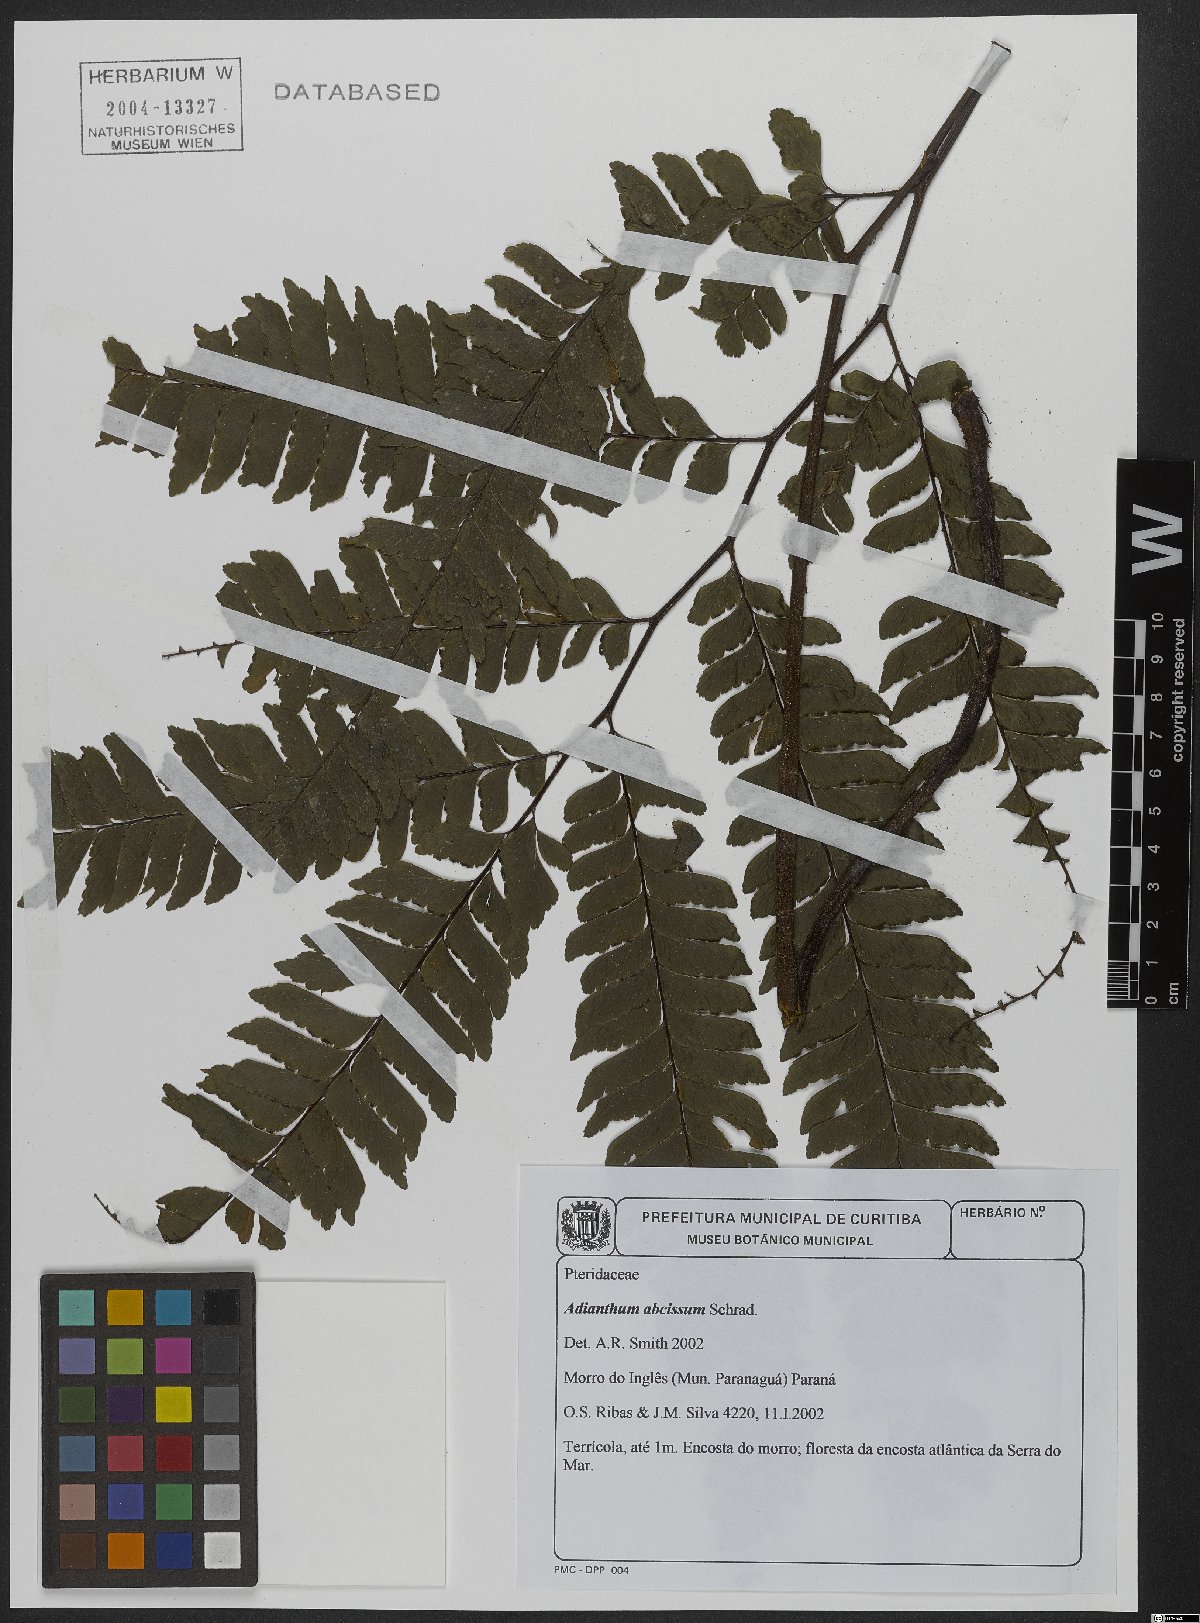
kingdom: Plantae
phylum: Tracheophyta
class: Polypodiopsida
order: Polypodiales
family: Pteridaceae
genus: Adiantum
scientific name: Adiantum abscissum
